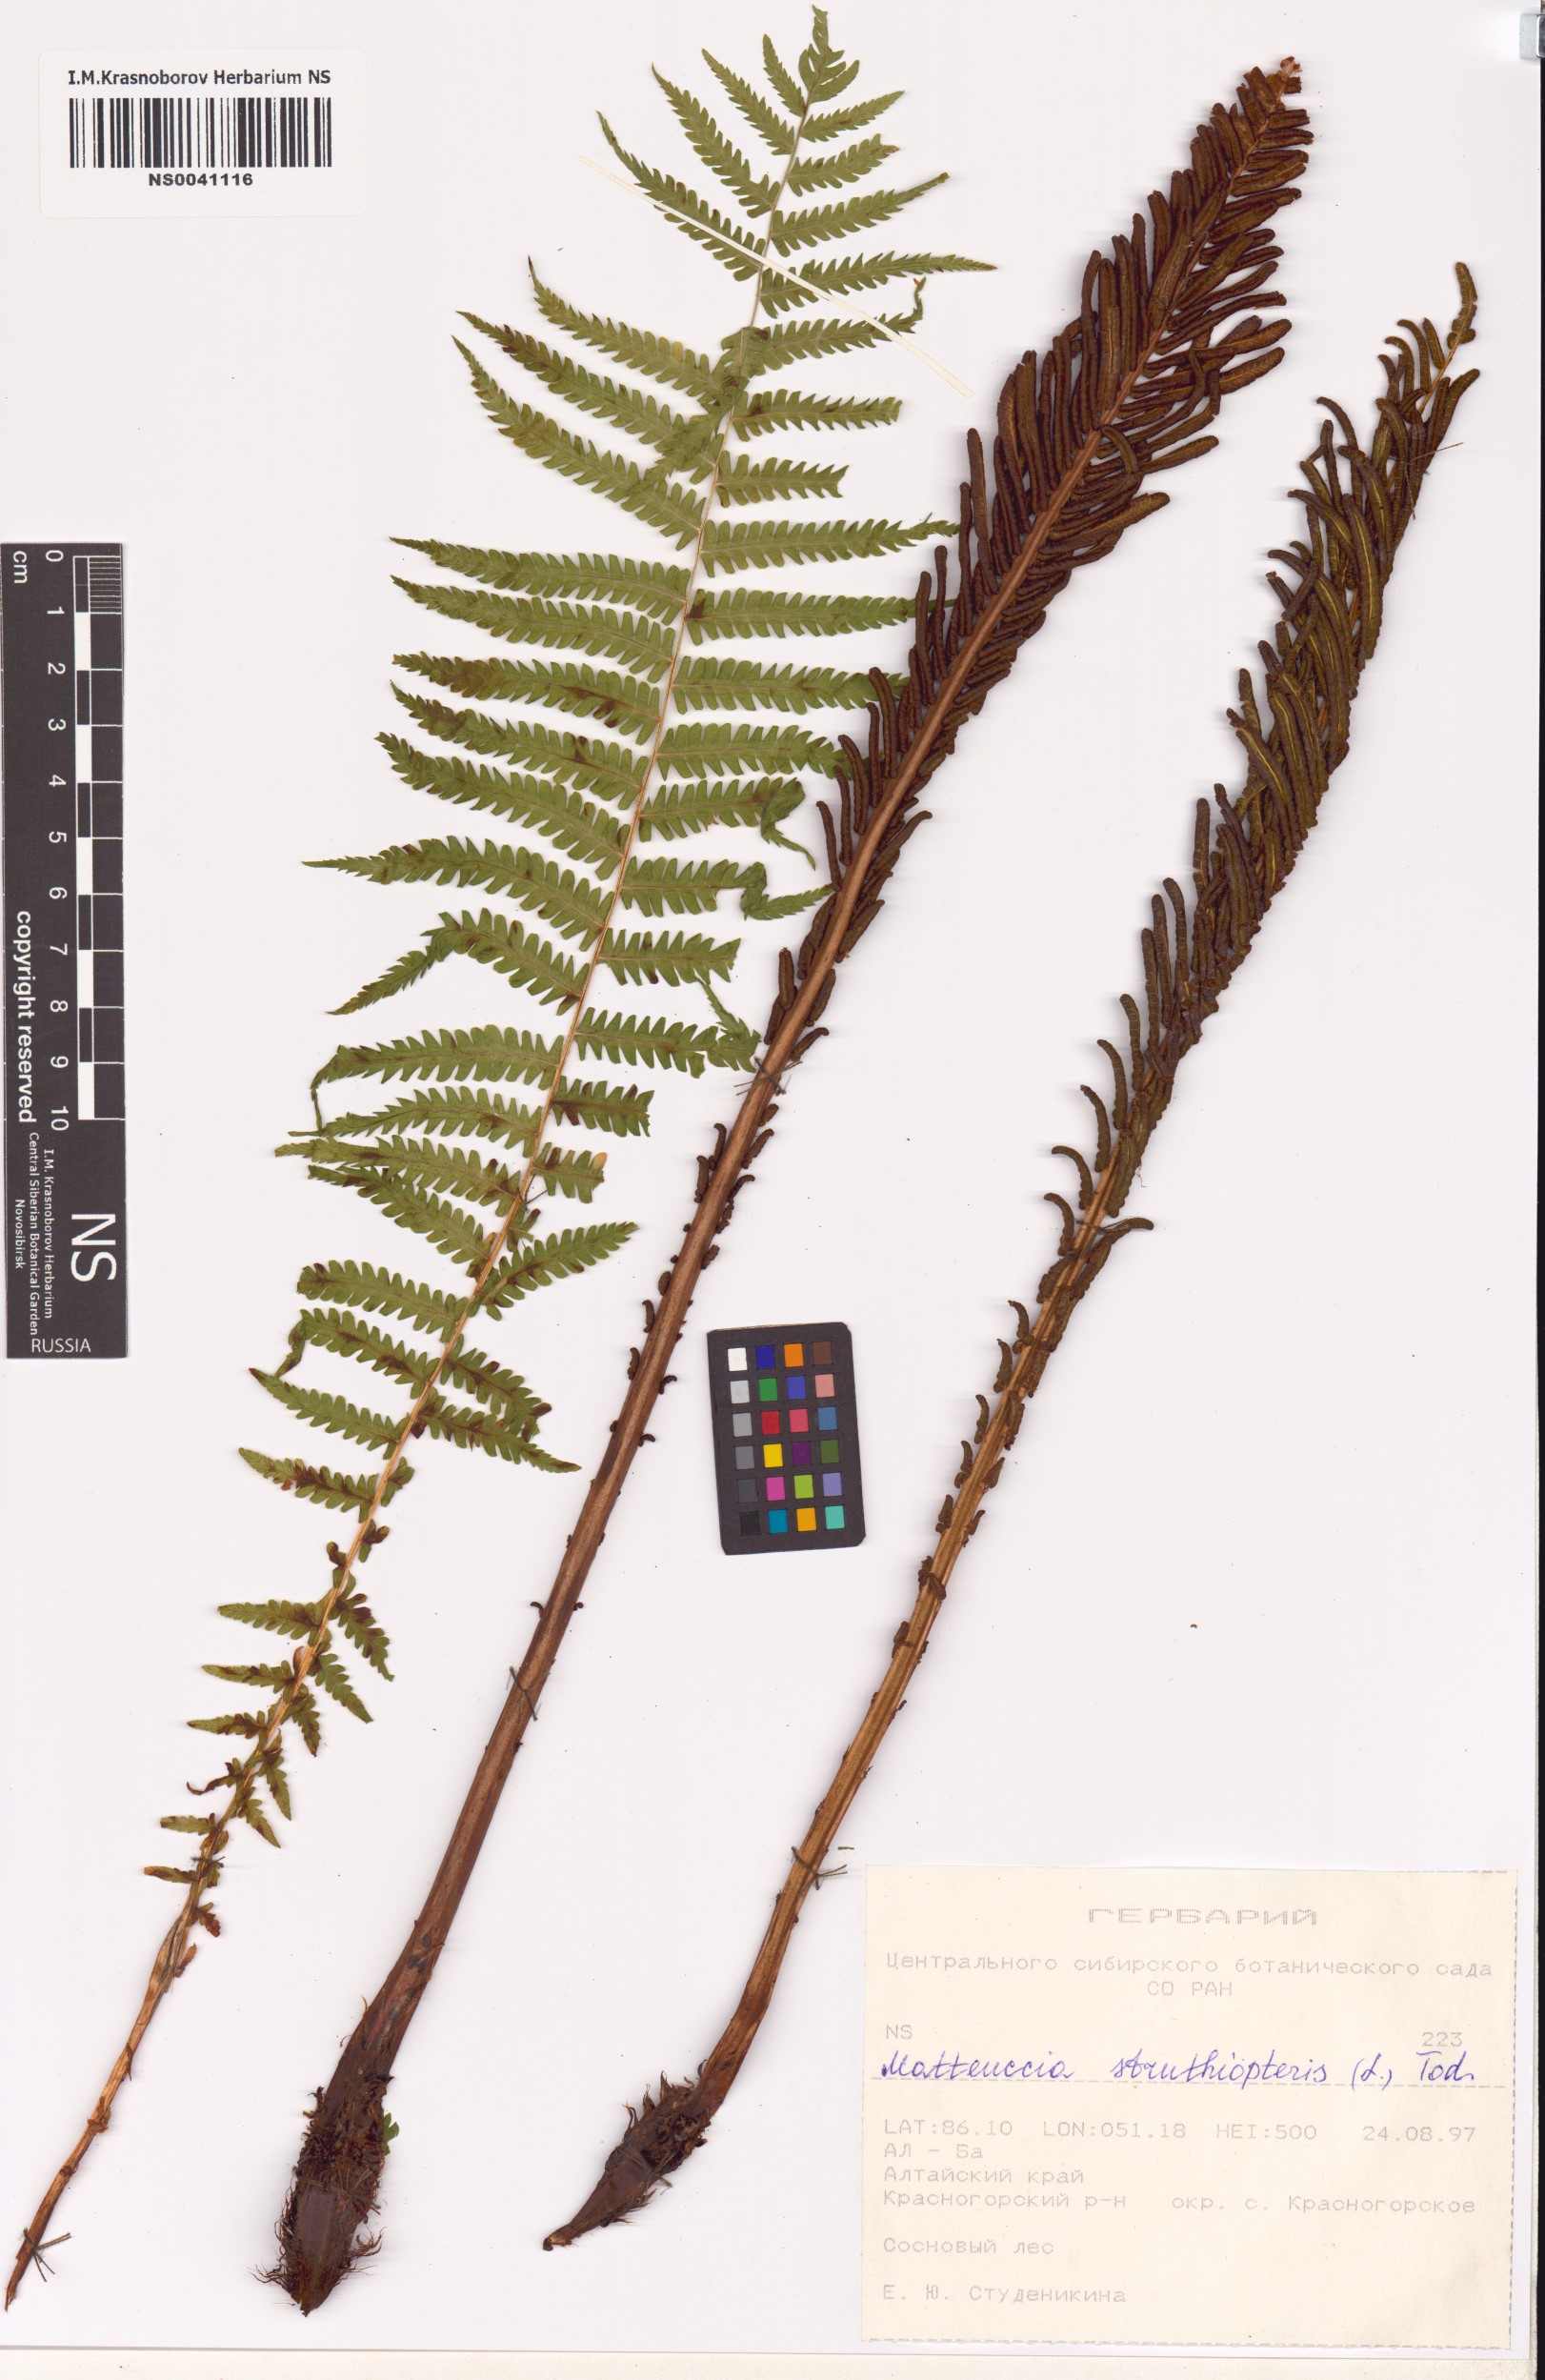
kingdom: Plantae
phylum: Tracheophyta
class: Polypodiopsida
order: Polypodiales
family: Onocleaceae
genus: Matteuccia
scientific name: Matteuccia struthiopteris
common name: Ostrich fern
